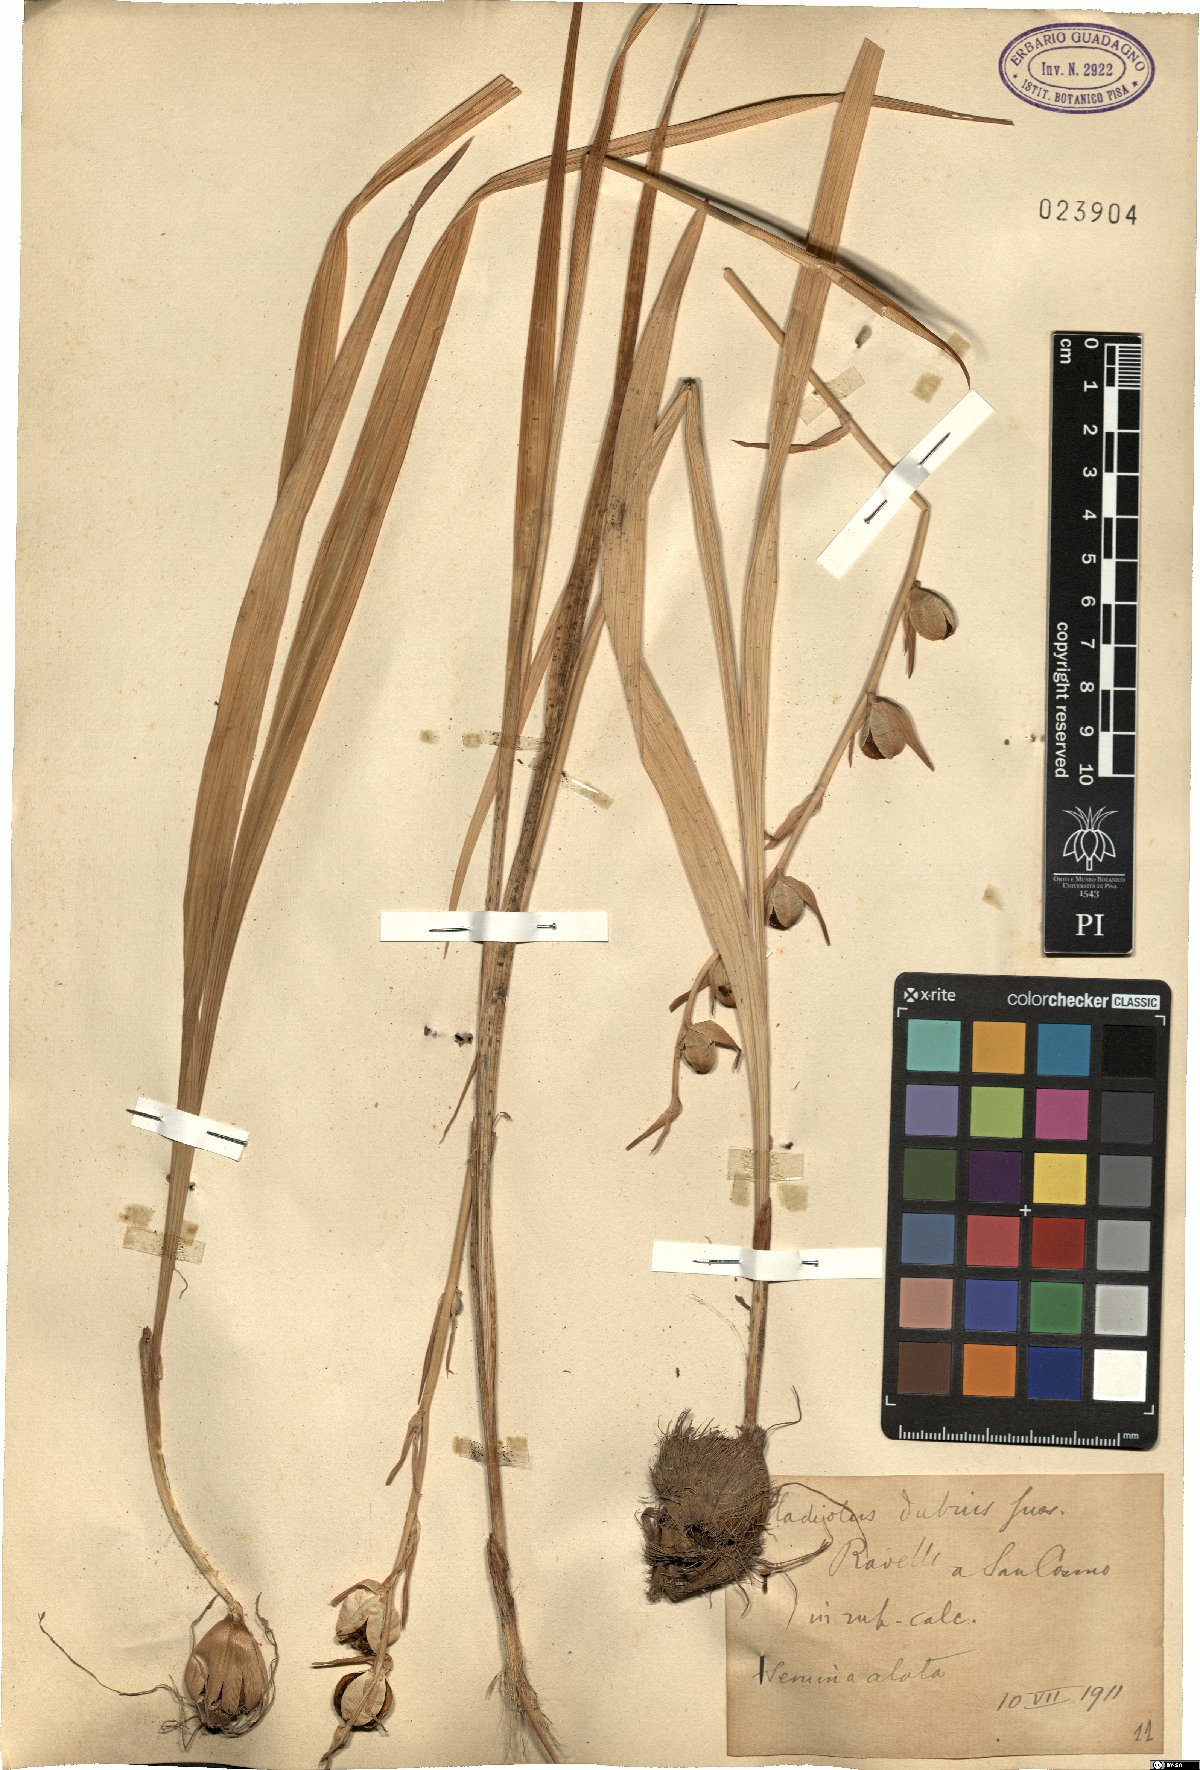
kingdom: Plantae
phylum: Tracheophyta
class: Liliopsida
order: Asparagales
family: Iridaceae
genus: Gladiolus
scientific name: Gladiolus dubius
